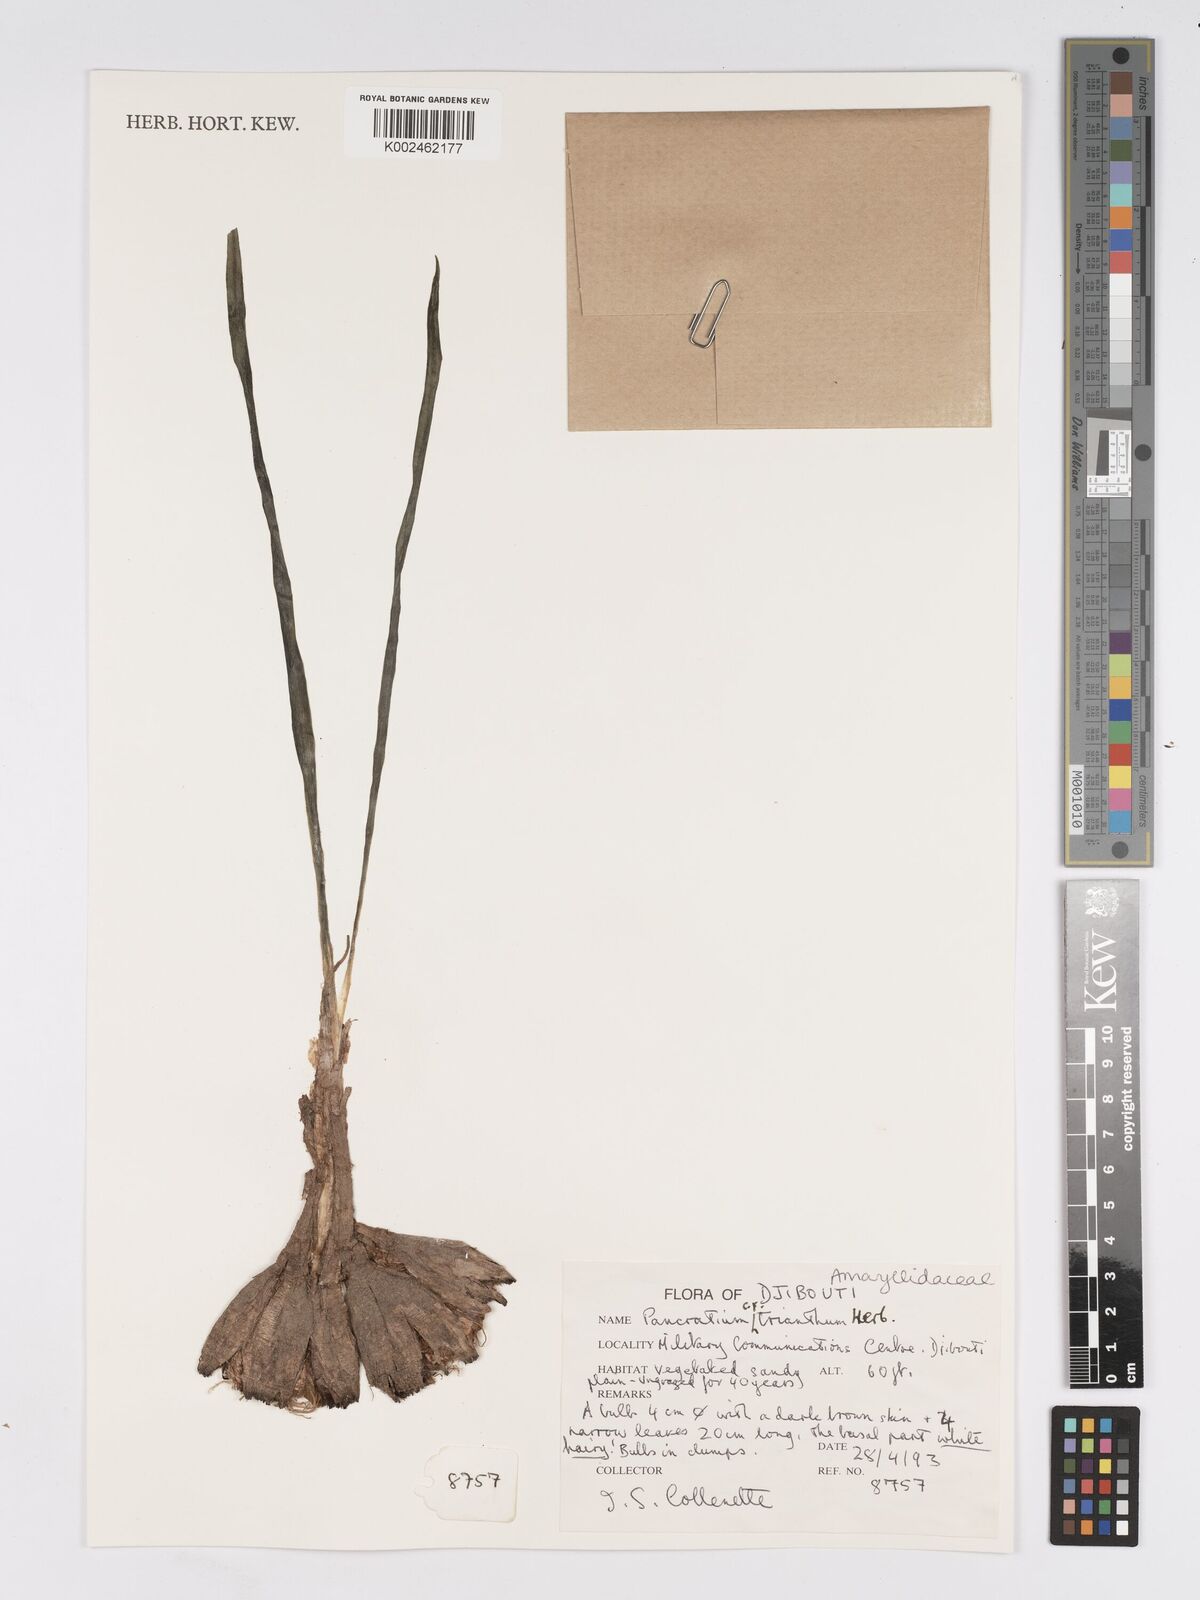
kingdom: Plantae
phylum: Tracheophyta
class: Liliopsida
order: Asparagales
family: Amaryllidaceae
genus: Pancratium
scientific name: Pancratium trianthum
